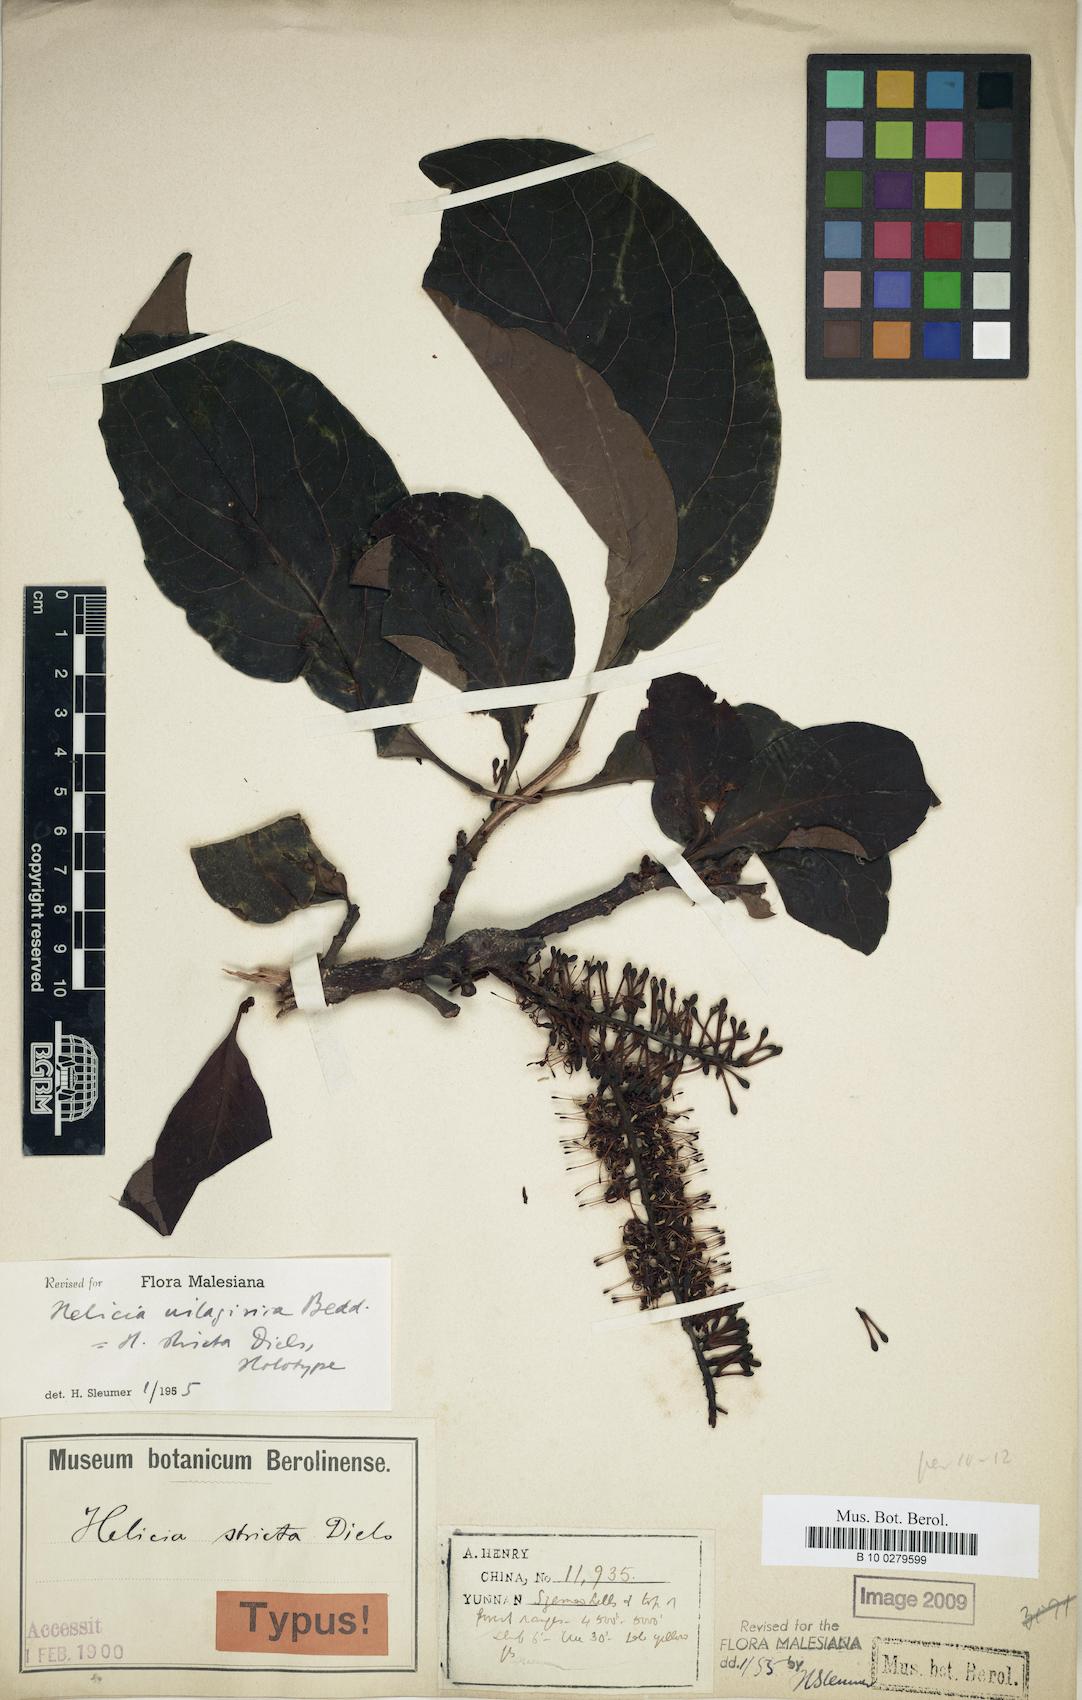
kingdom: Plantae
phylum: Tracheophyta
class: Magnoliopsida
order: Proteales
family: Proteaceae
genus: Helicia
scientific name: Helicia nilagirica
